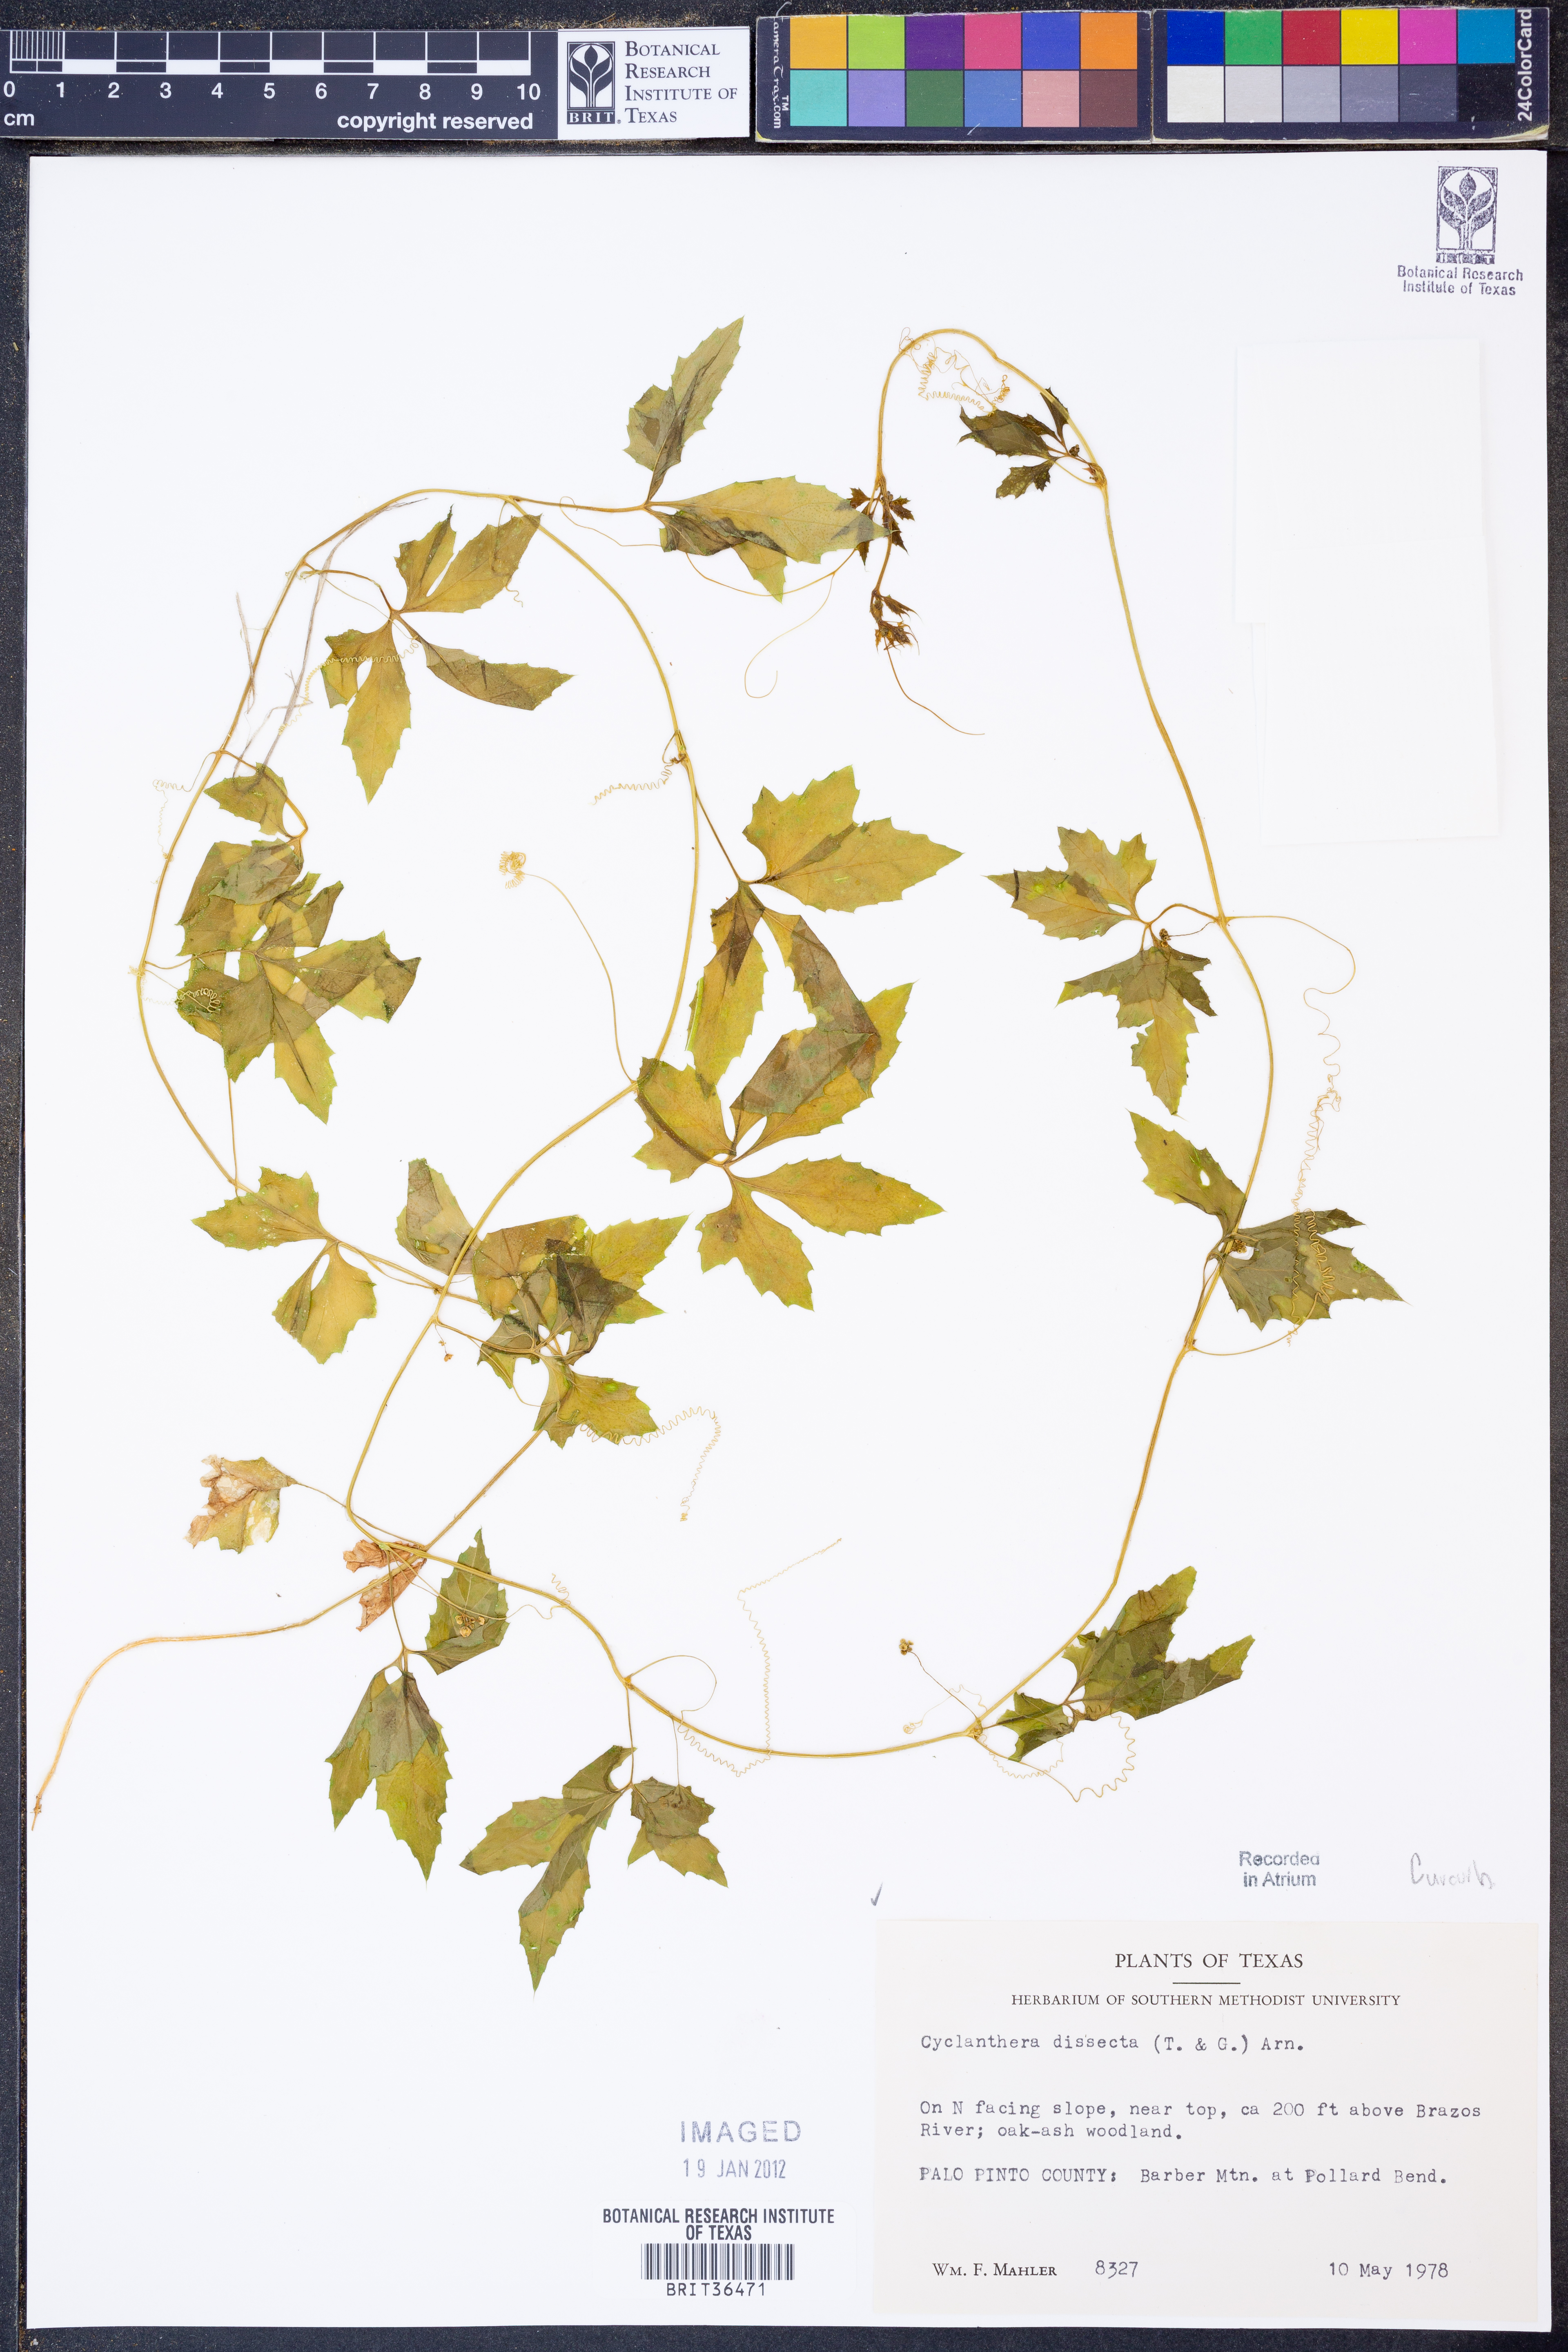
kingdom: Plantae
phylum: Tracheophyta
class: Magnoliopsida
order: Cucurbitales
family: Cucurbitaceae
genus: Cyclanthera
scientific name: Cyclanthera dissecta
